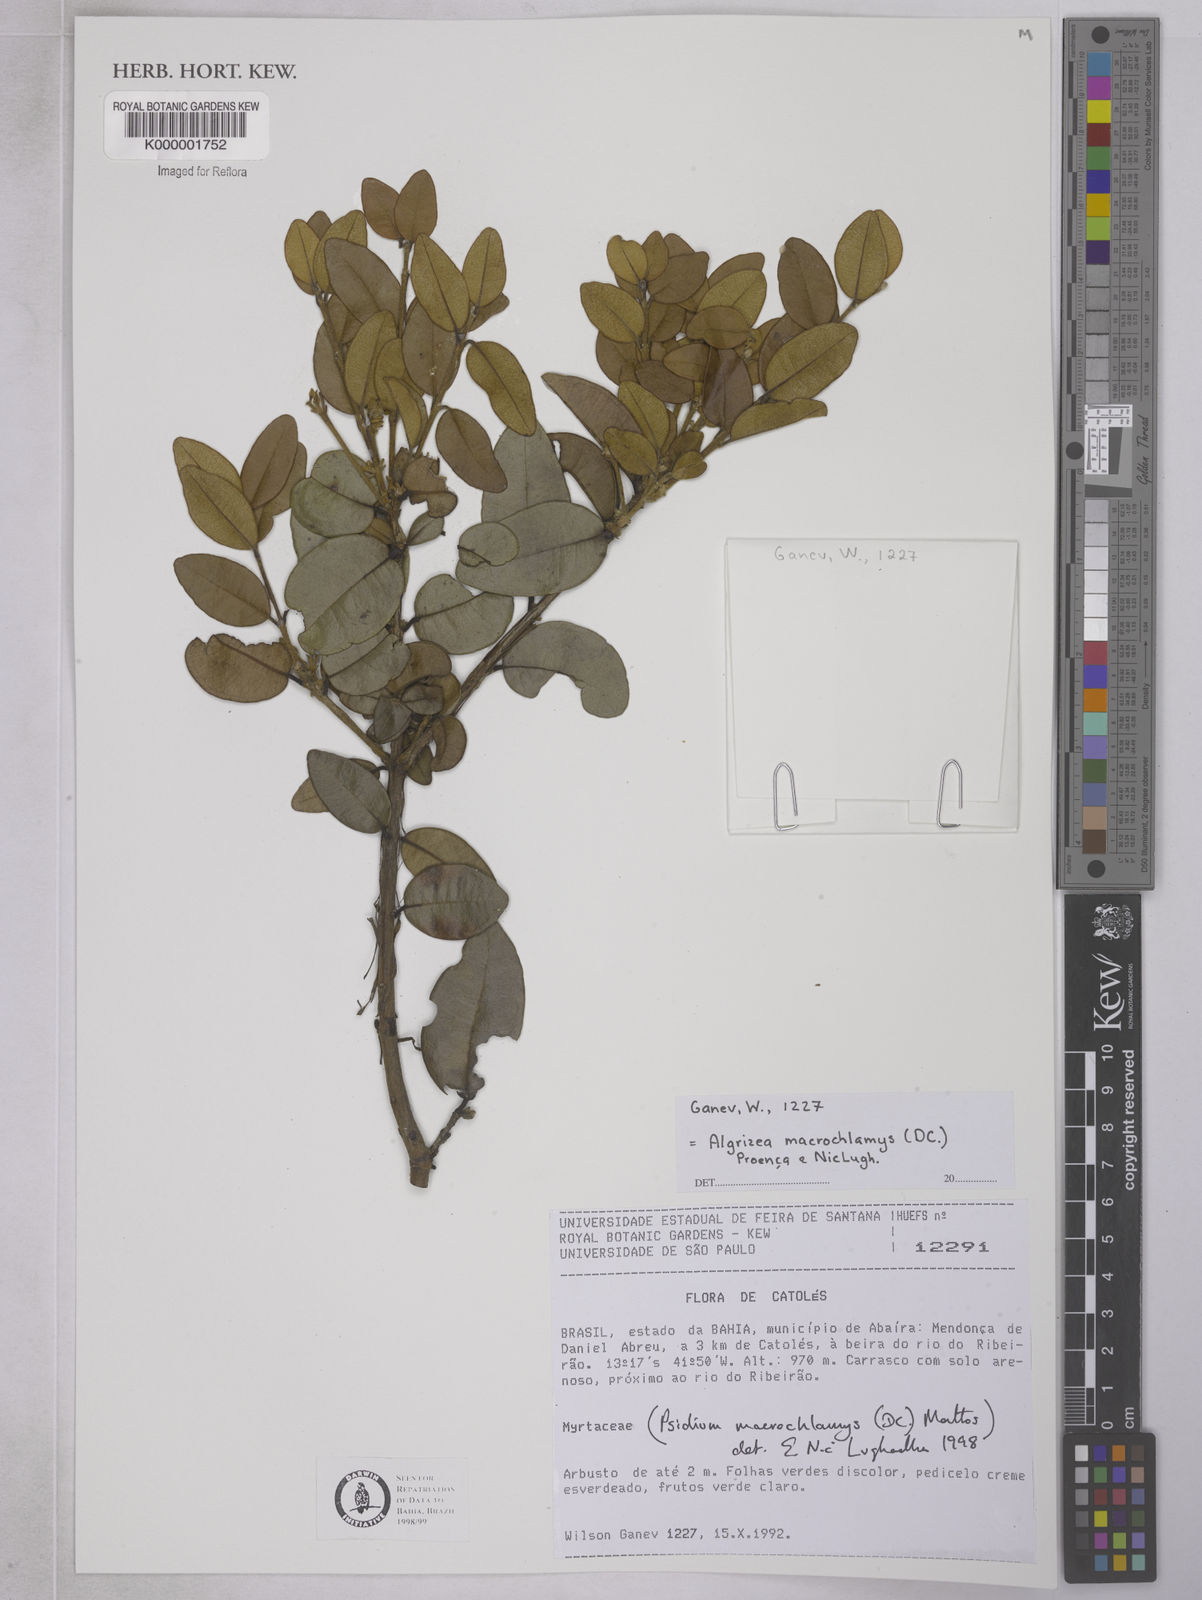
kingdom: Plantae
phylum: Tracheophyta
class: Magnoliopsida
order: Myrtales
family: Myrtaceae
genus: Algrizea
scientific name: Algrizea macrochlamys
